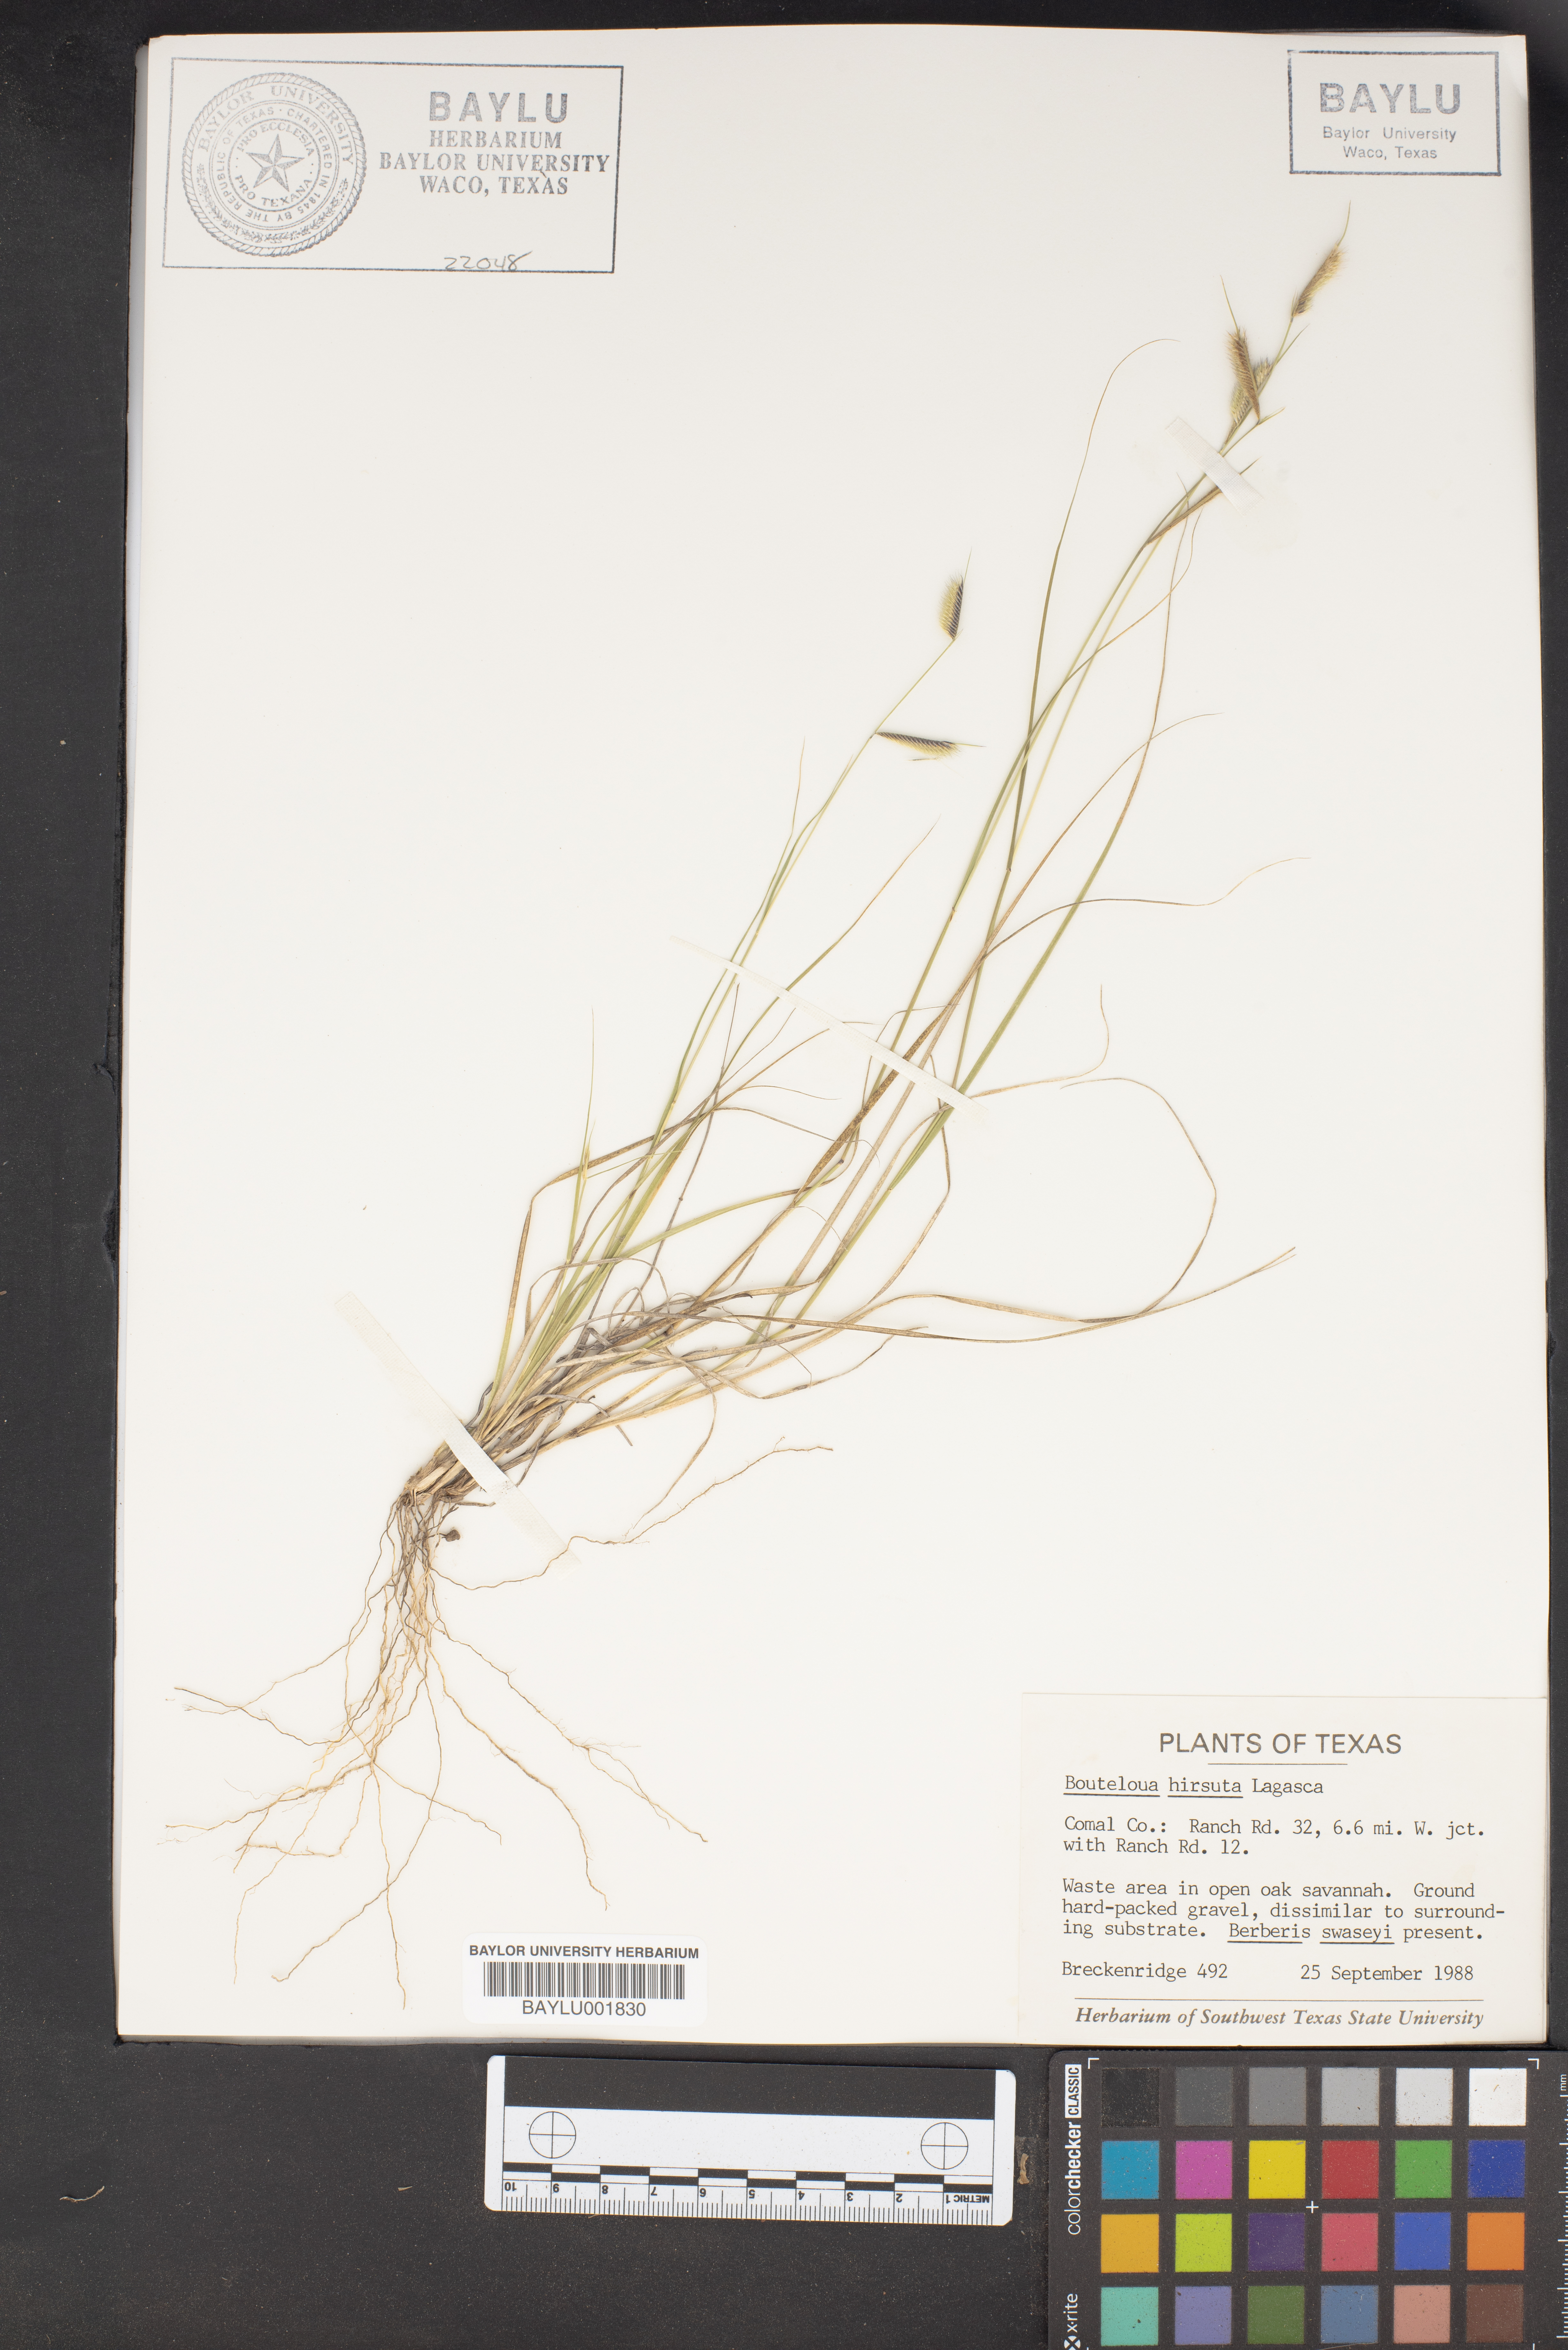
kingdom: Plantae
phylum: Tracheophyta
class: Liliopsida
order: Poales
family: Poaceae
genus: Bouteloua
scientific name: Bouteloua hirsuta
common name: Hairy grama
